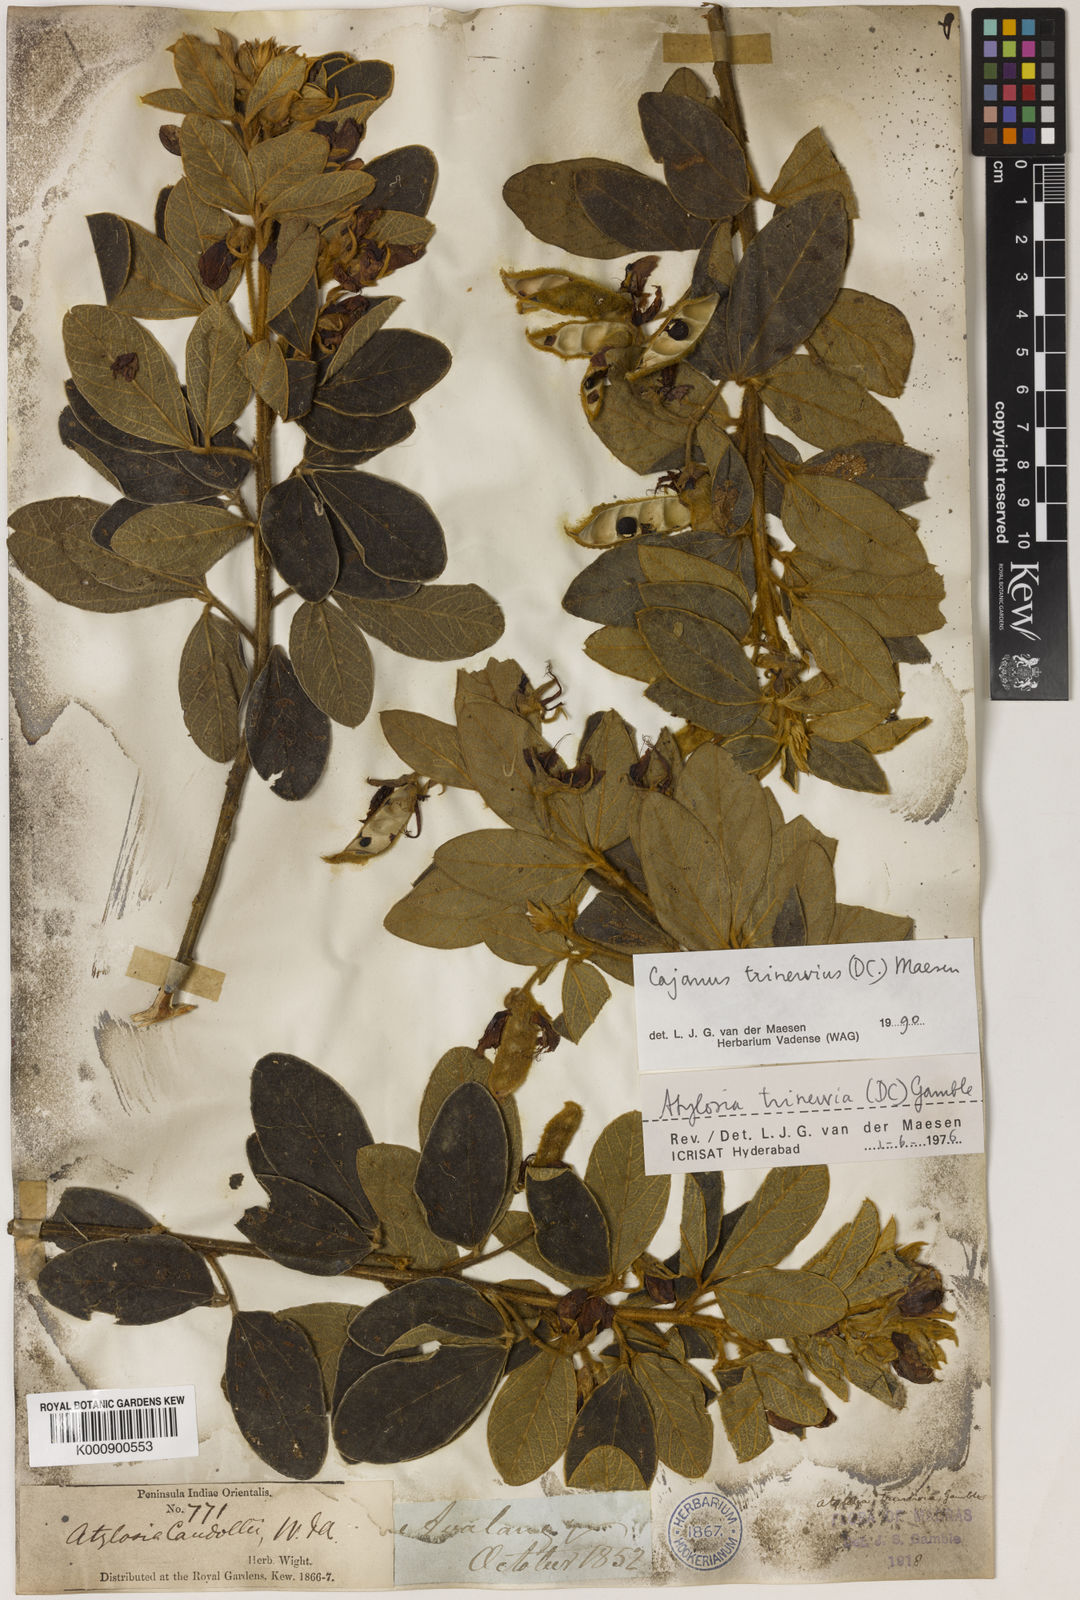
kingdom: Plantae
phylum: Tracheophyta
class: Magnoliopsida
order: Fabales
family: Fabaceae
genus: Cajanus
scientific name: Cajanus
